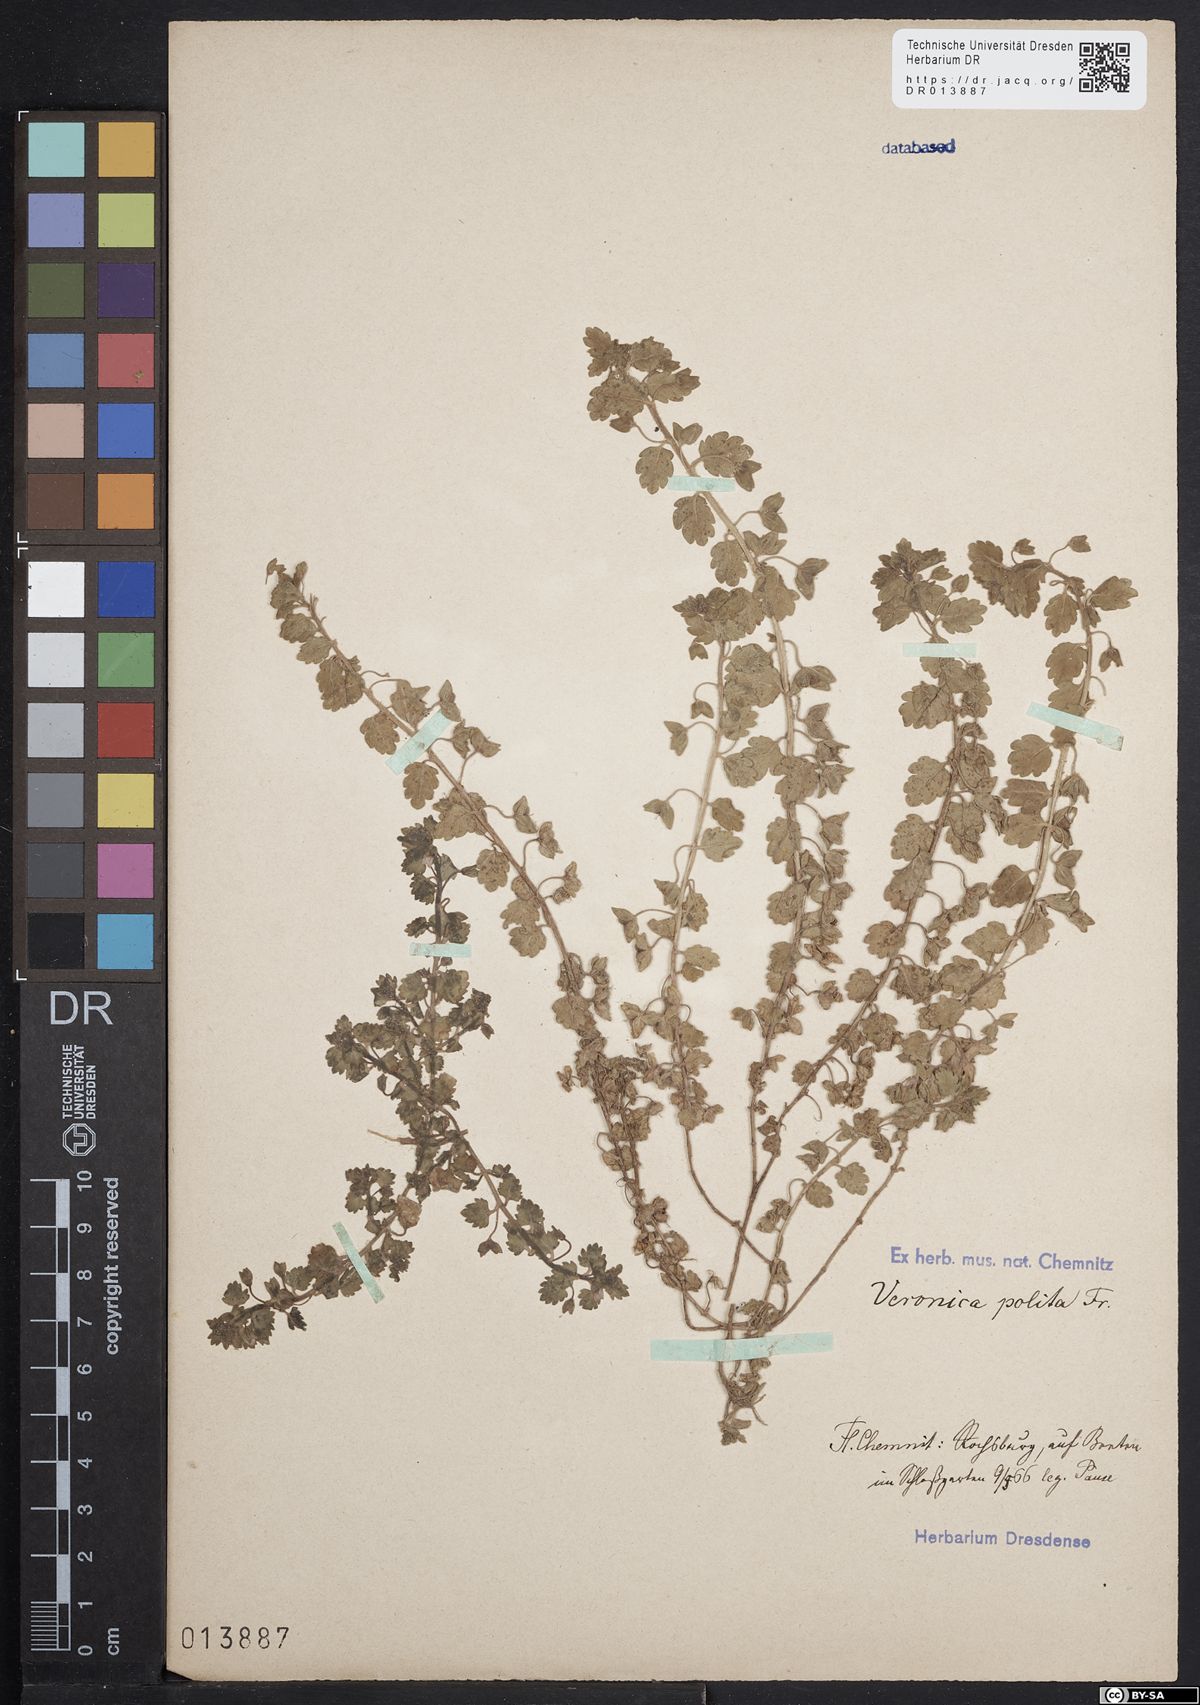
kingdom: Plantae
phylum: Tracheophyta
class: Magnoliopsida
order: Lamiales
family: Plantaginaceae
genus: Veronica
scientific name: Veronica polita
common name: Grey field-speedwell
